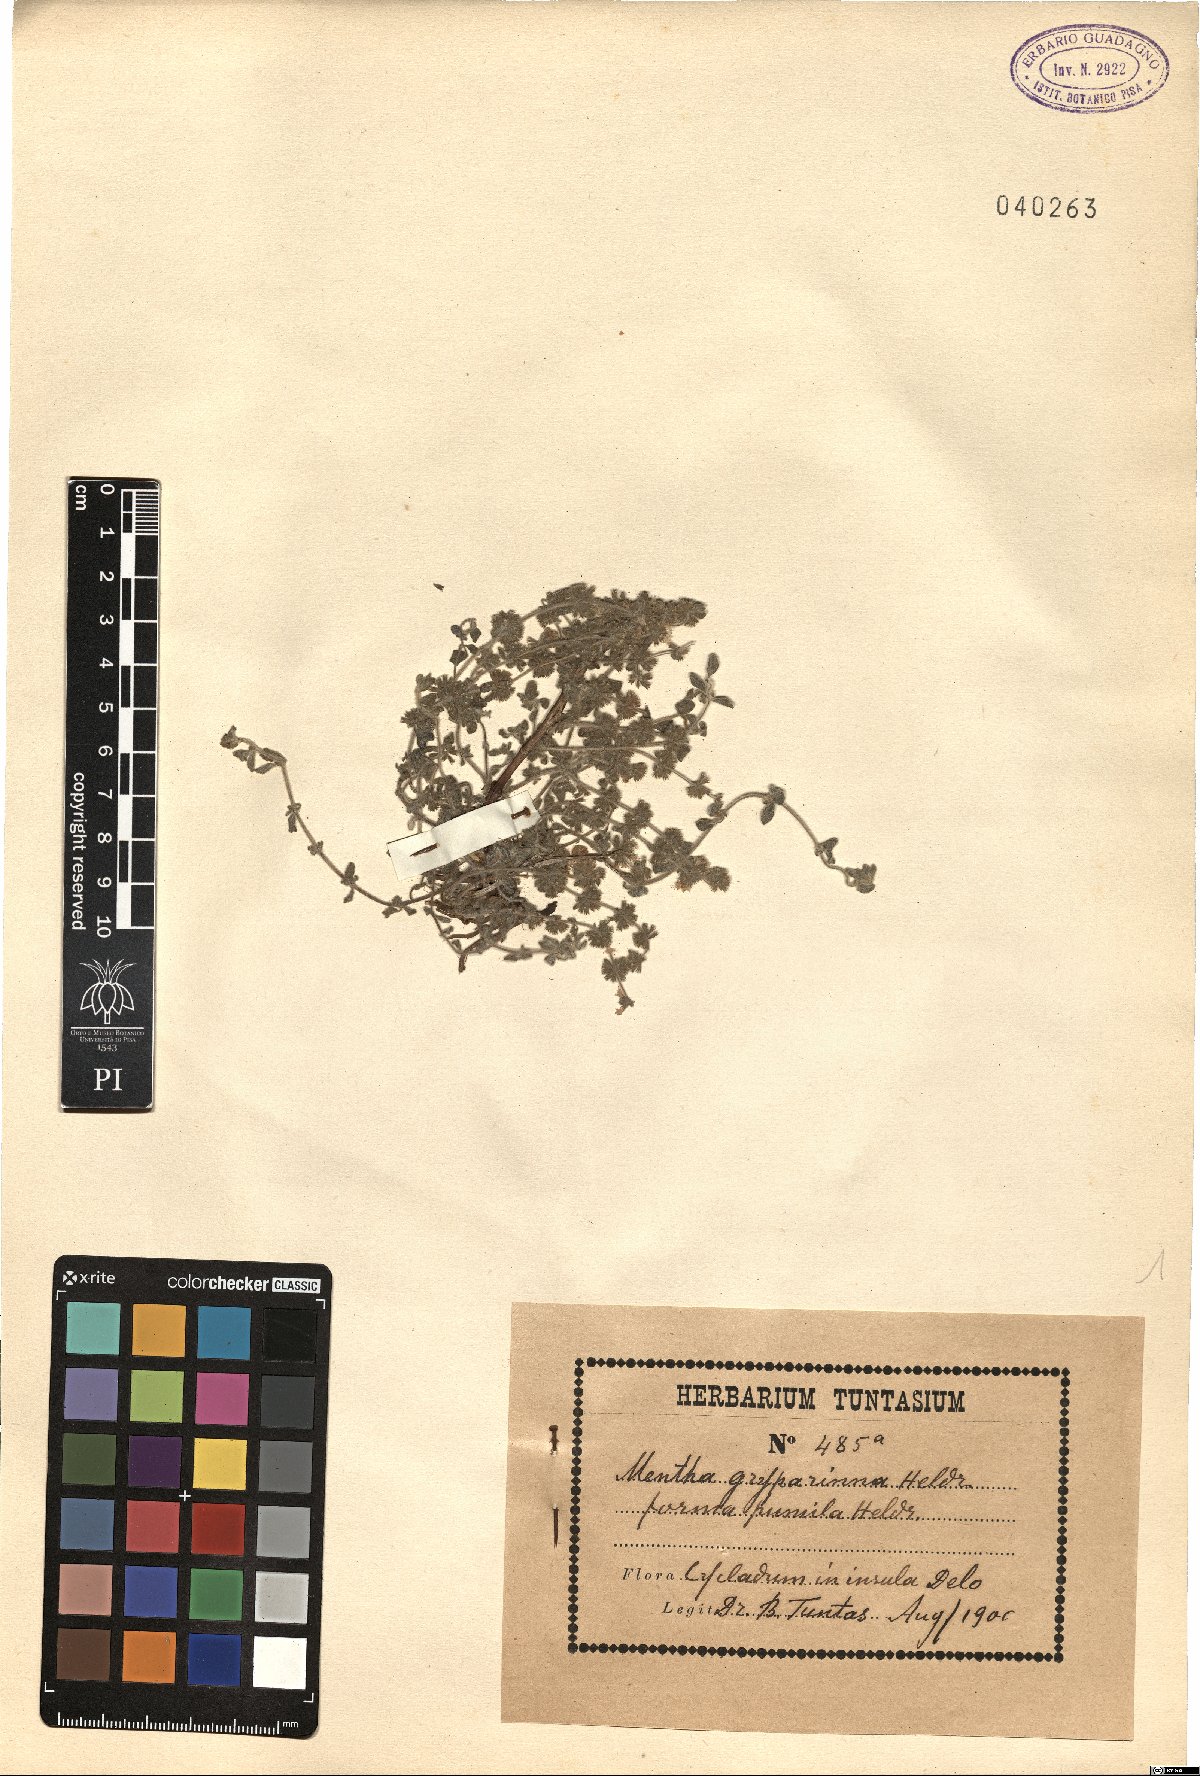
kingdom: Plantae
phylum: Tracheophyta
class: Magnoliopsida
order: Lamiales
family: Lamiaceae
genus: Mentha
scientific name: Mentha
